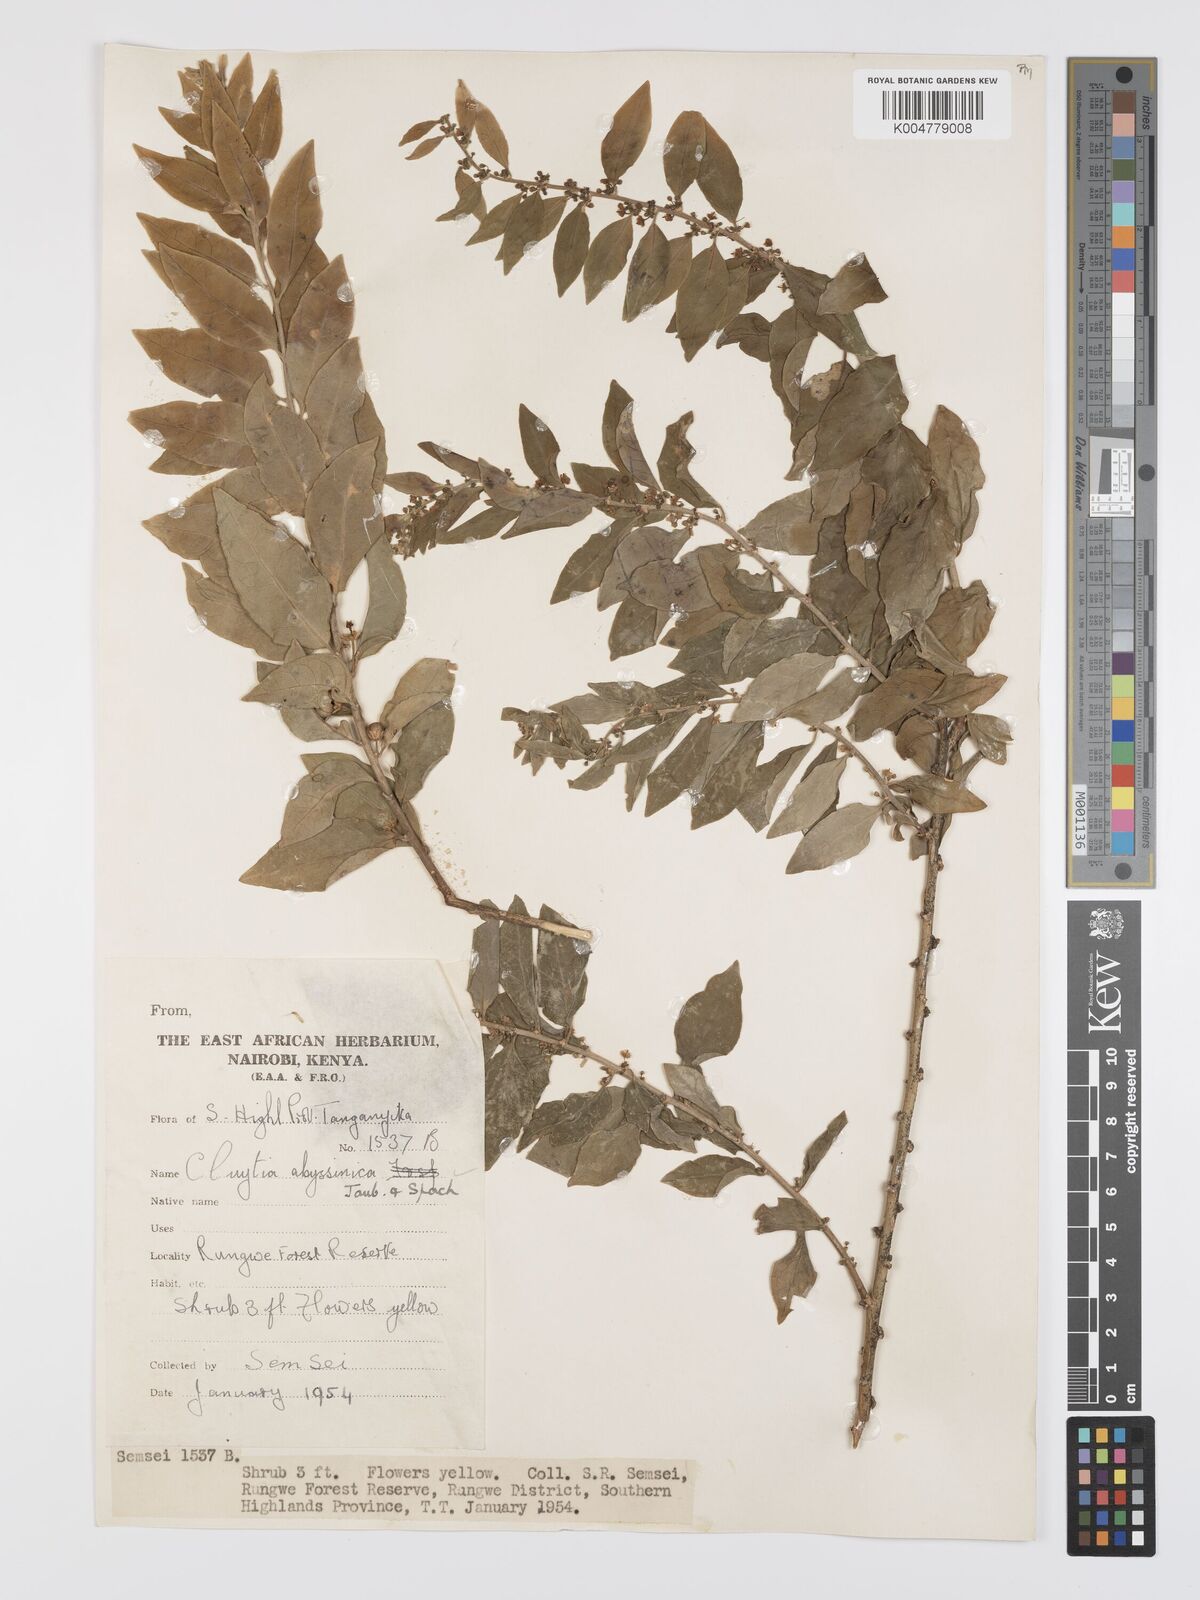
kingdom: Plantae
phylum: Tracheophyta
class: Magnoliopsida
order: Malpighiales
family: Peraceae
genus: Clutia
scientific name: Clutia abyssinica
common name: Large lightning bush
